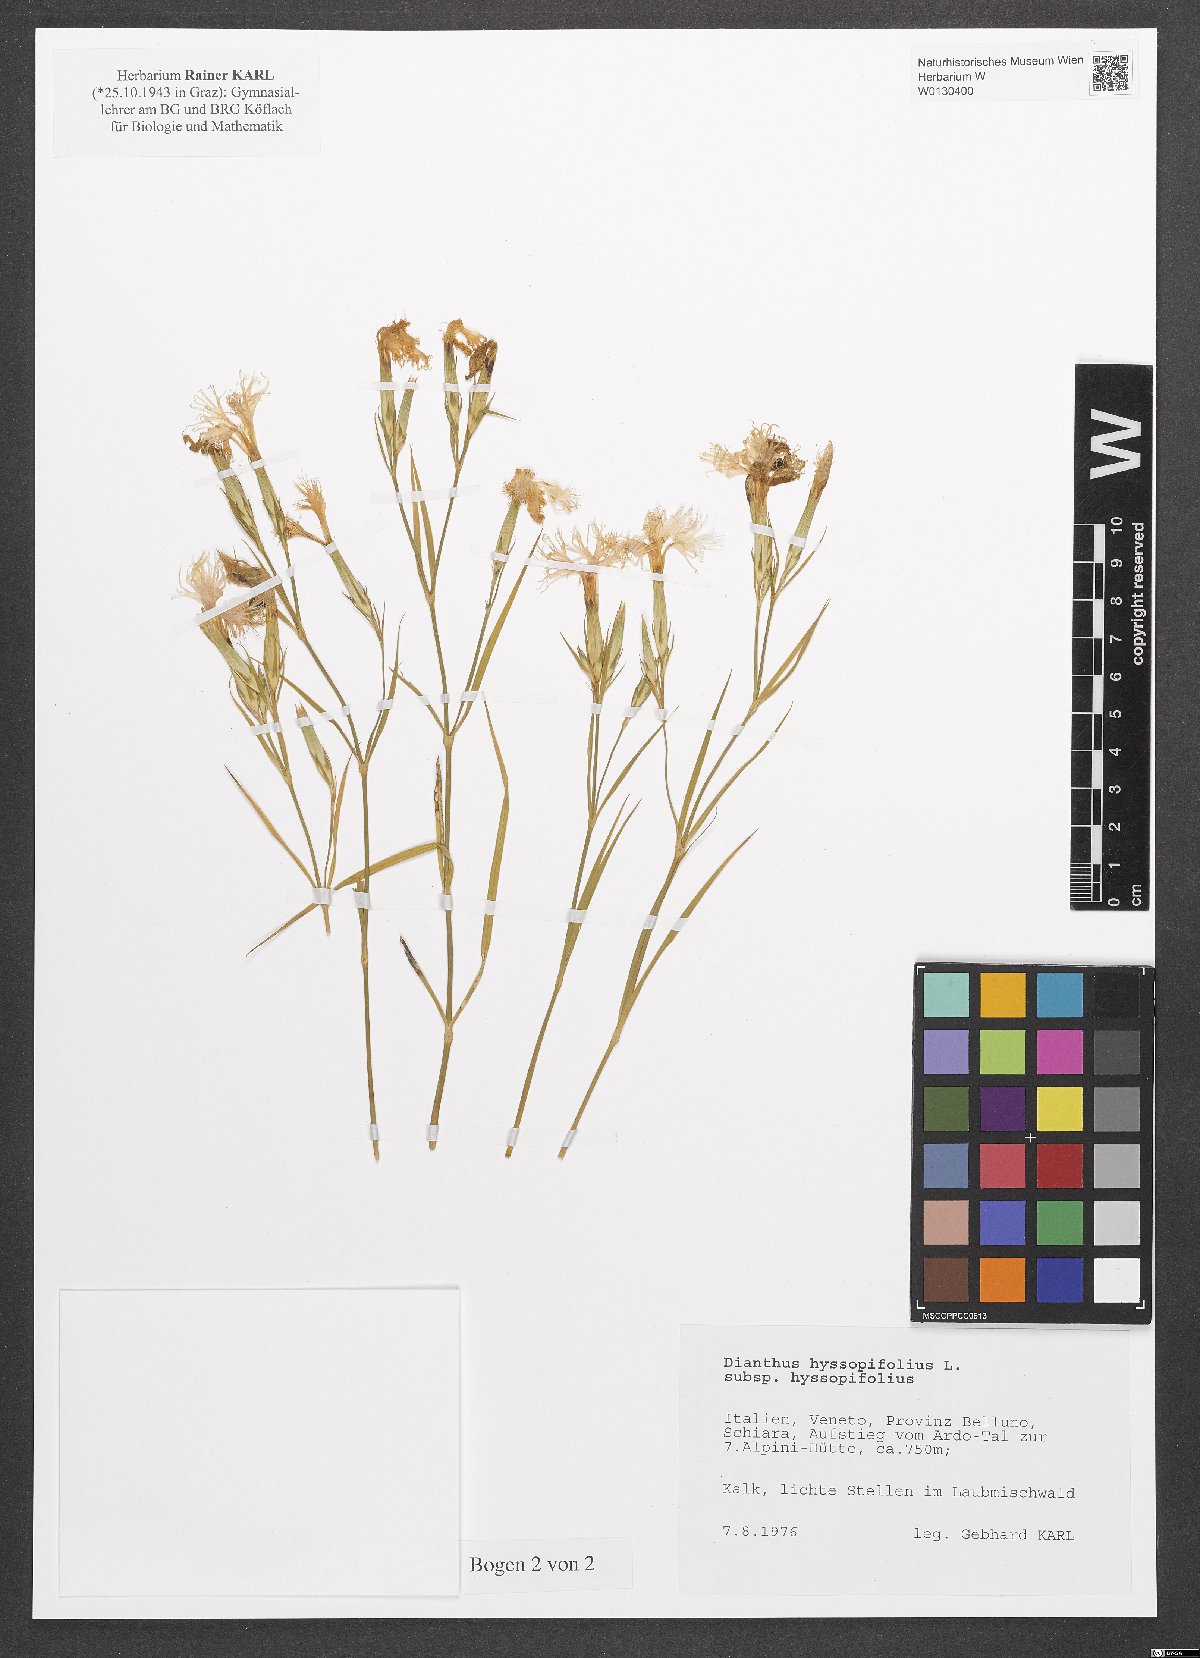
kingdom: Plantae
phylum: Tracheophyta
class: Magnoliopsida
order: Caryophyllales
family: Caryophyllaceae
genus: Dianthus
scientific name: Dianthus hyssopifolius
